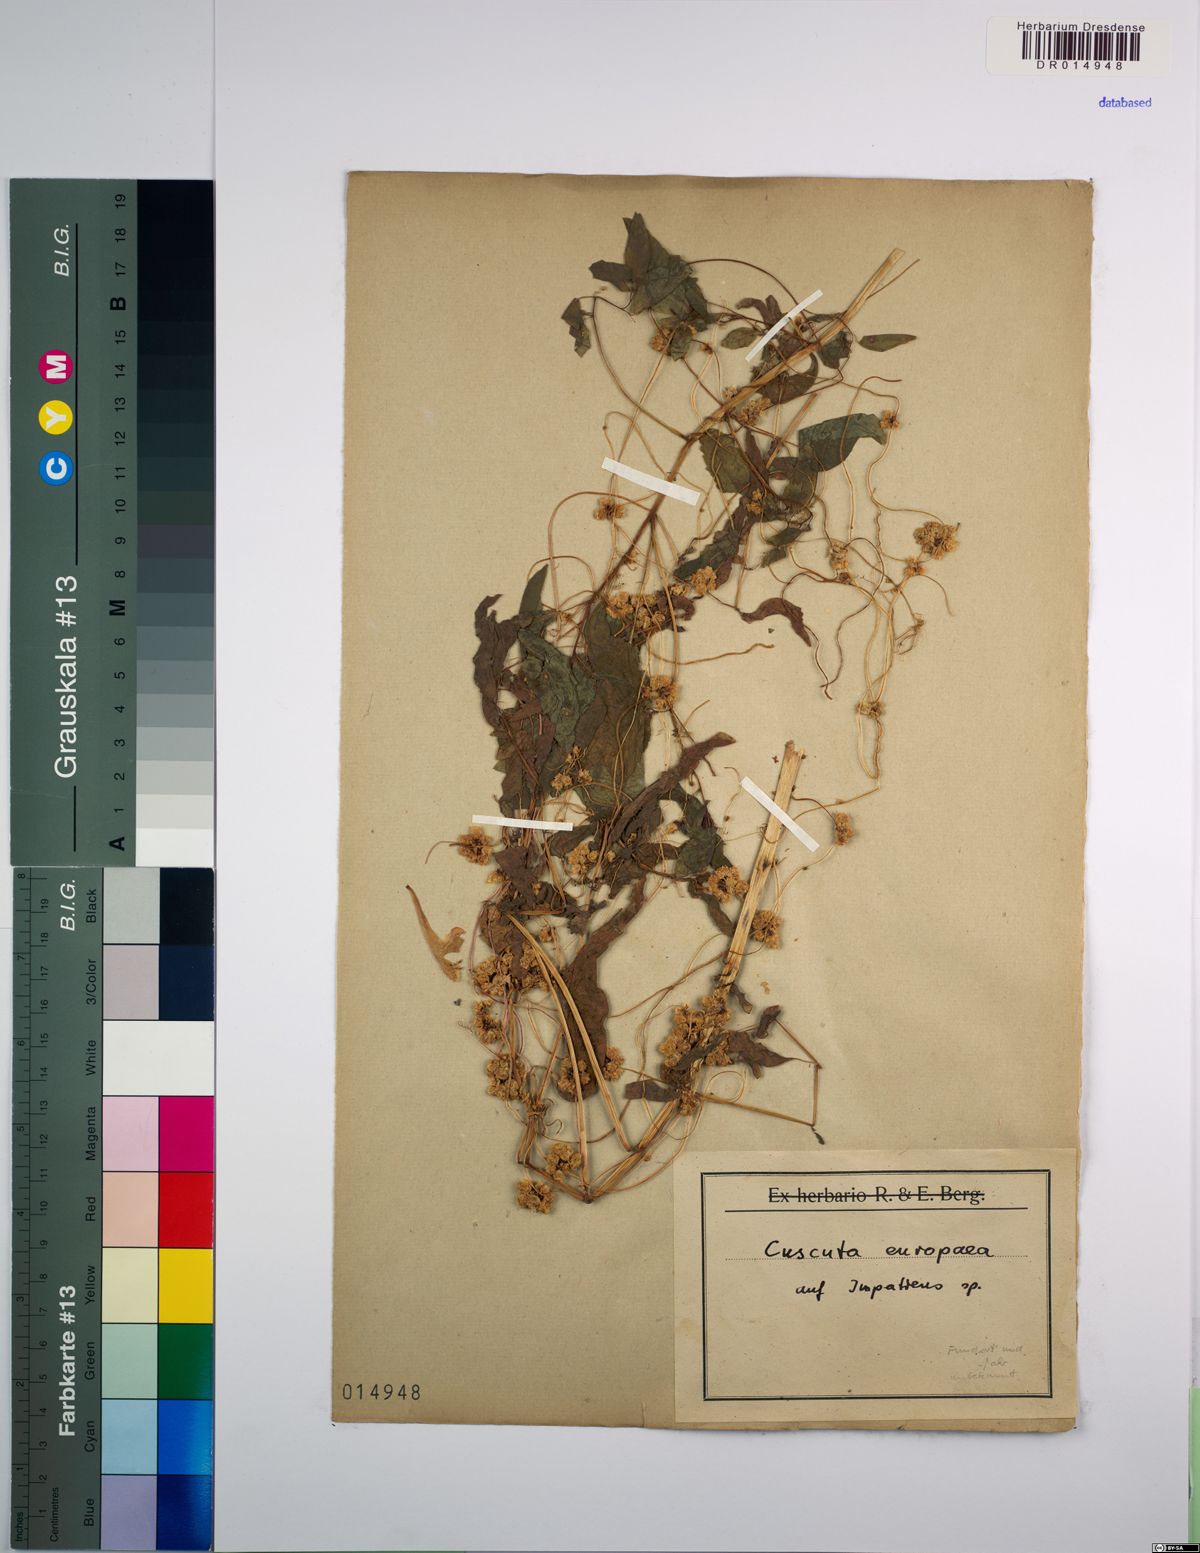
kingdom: Plantae
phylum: Tracheophyta
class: Magnoliopsida
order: Solanales
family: Convolvulaceae
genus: Cuscuta
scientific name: Cuscuta europaea
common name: Greater dodder
